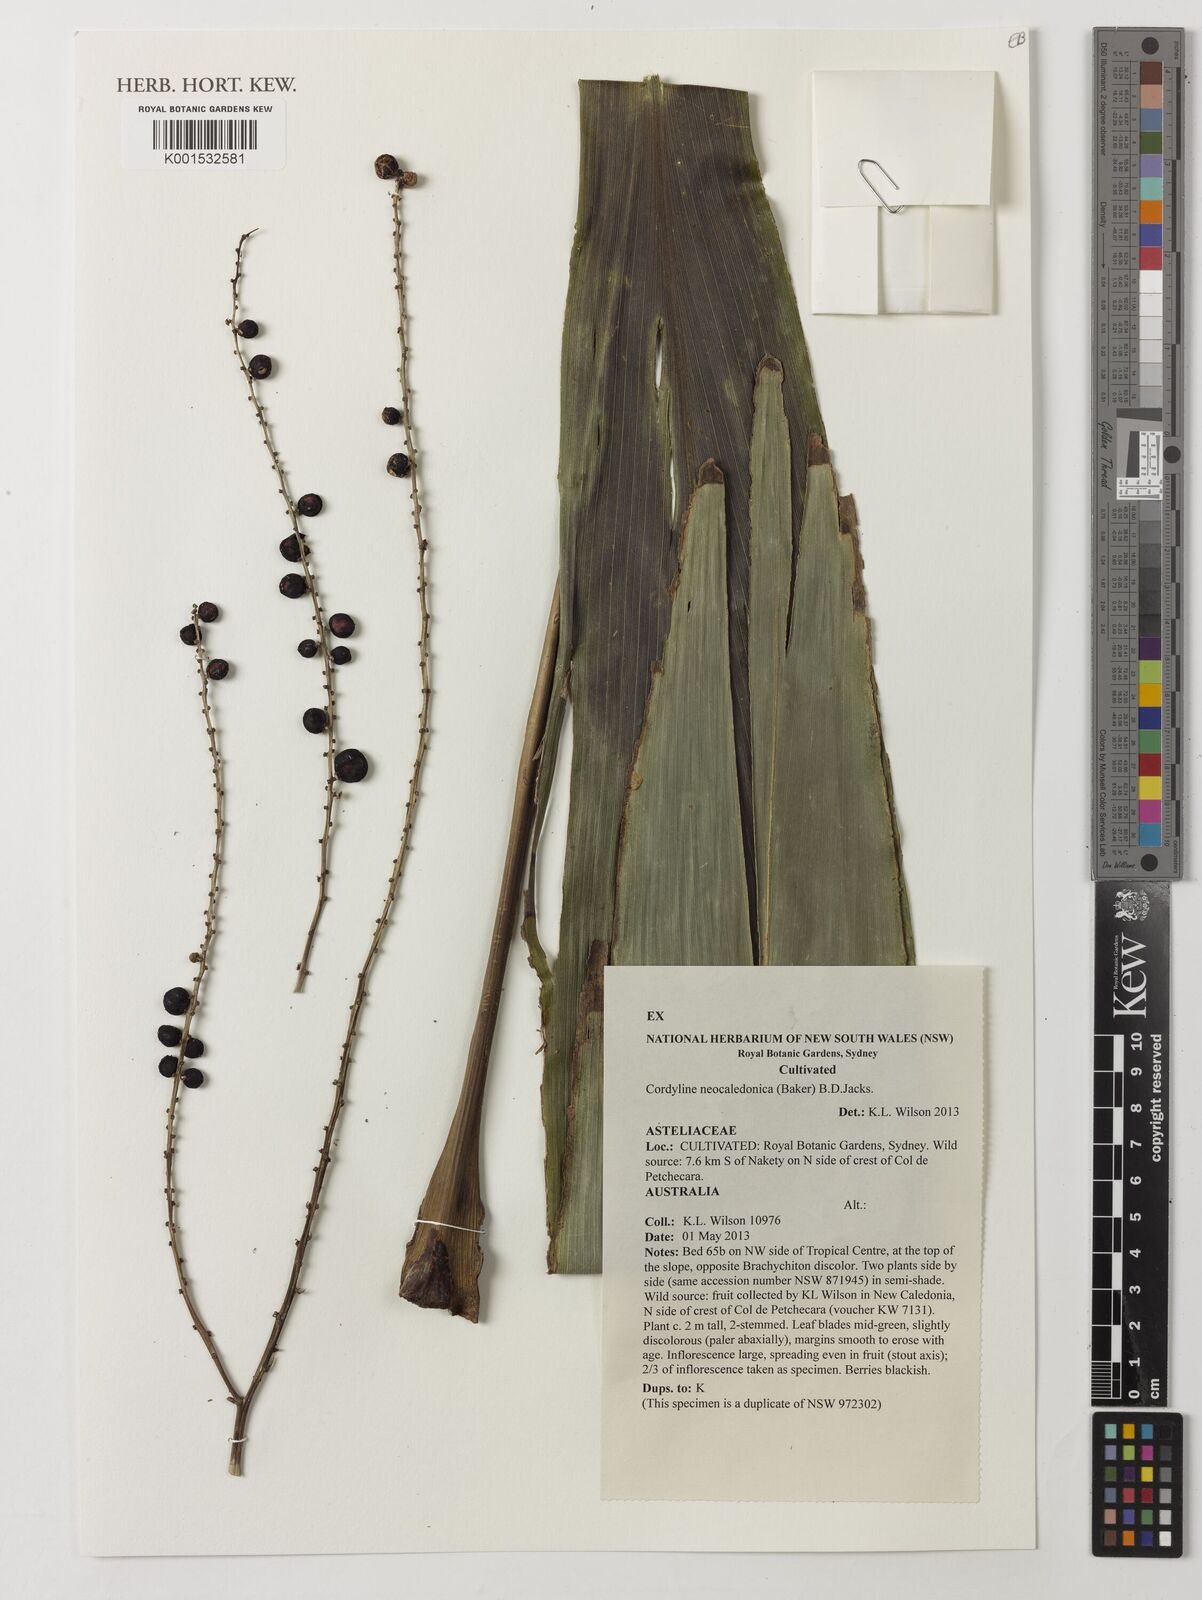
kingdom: Plantae
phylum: Tracheophyta
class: Liliopsida
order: Asparagales
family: Asparagaceae
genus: Cordyline
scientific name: Cordyline neocaledonica
